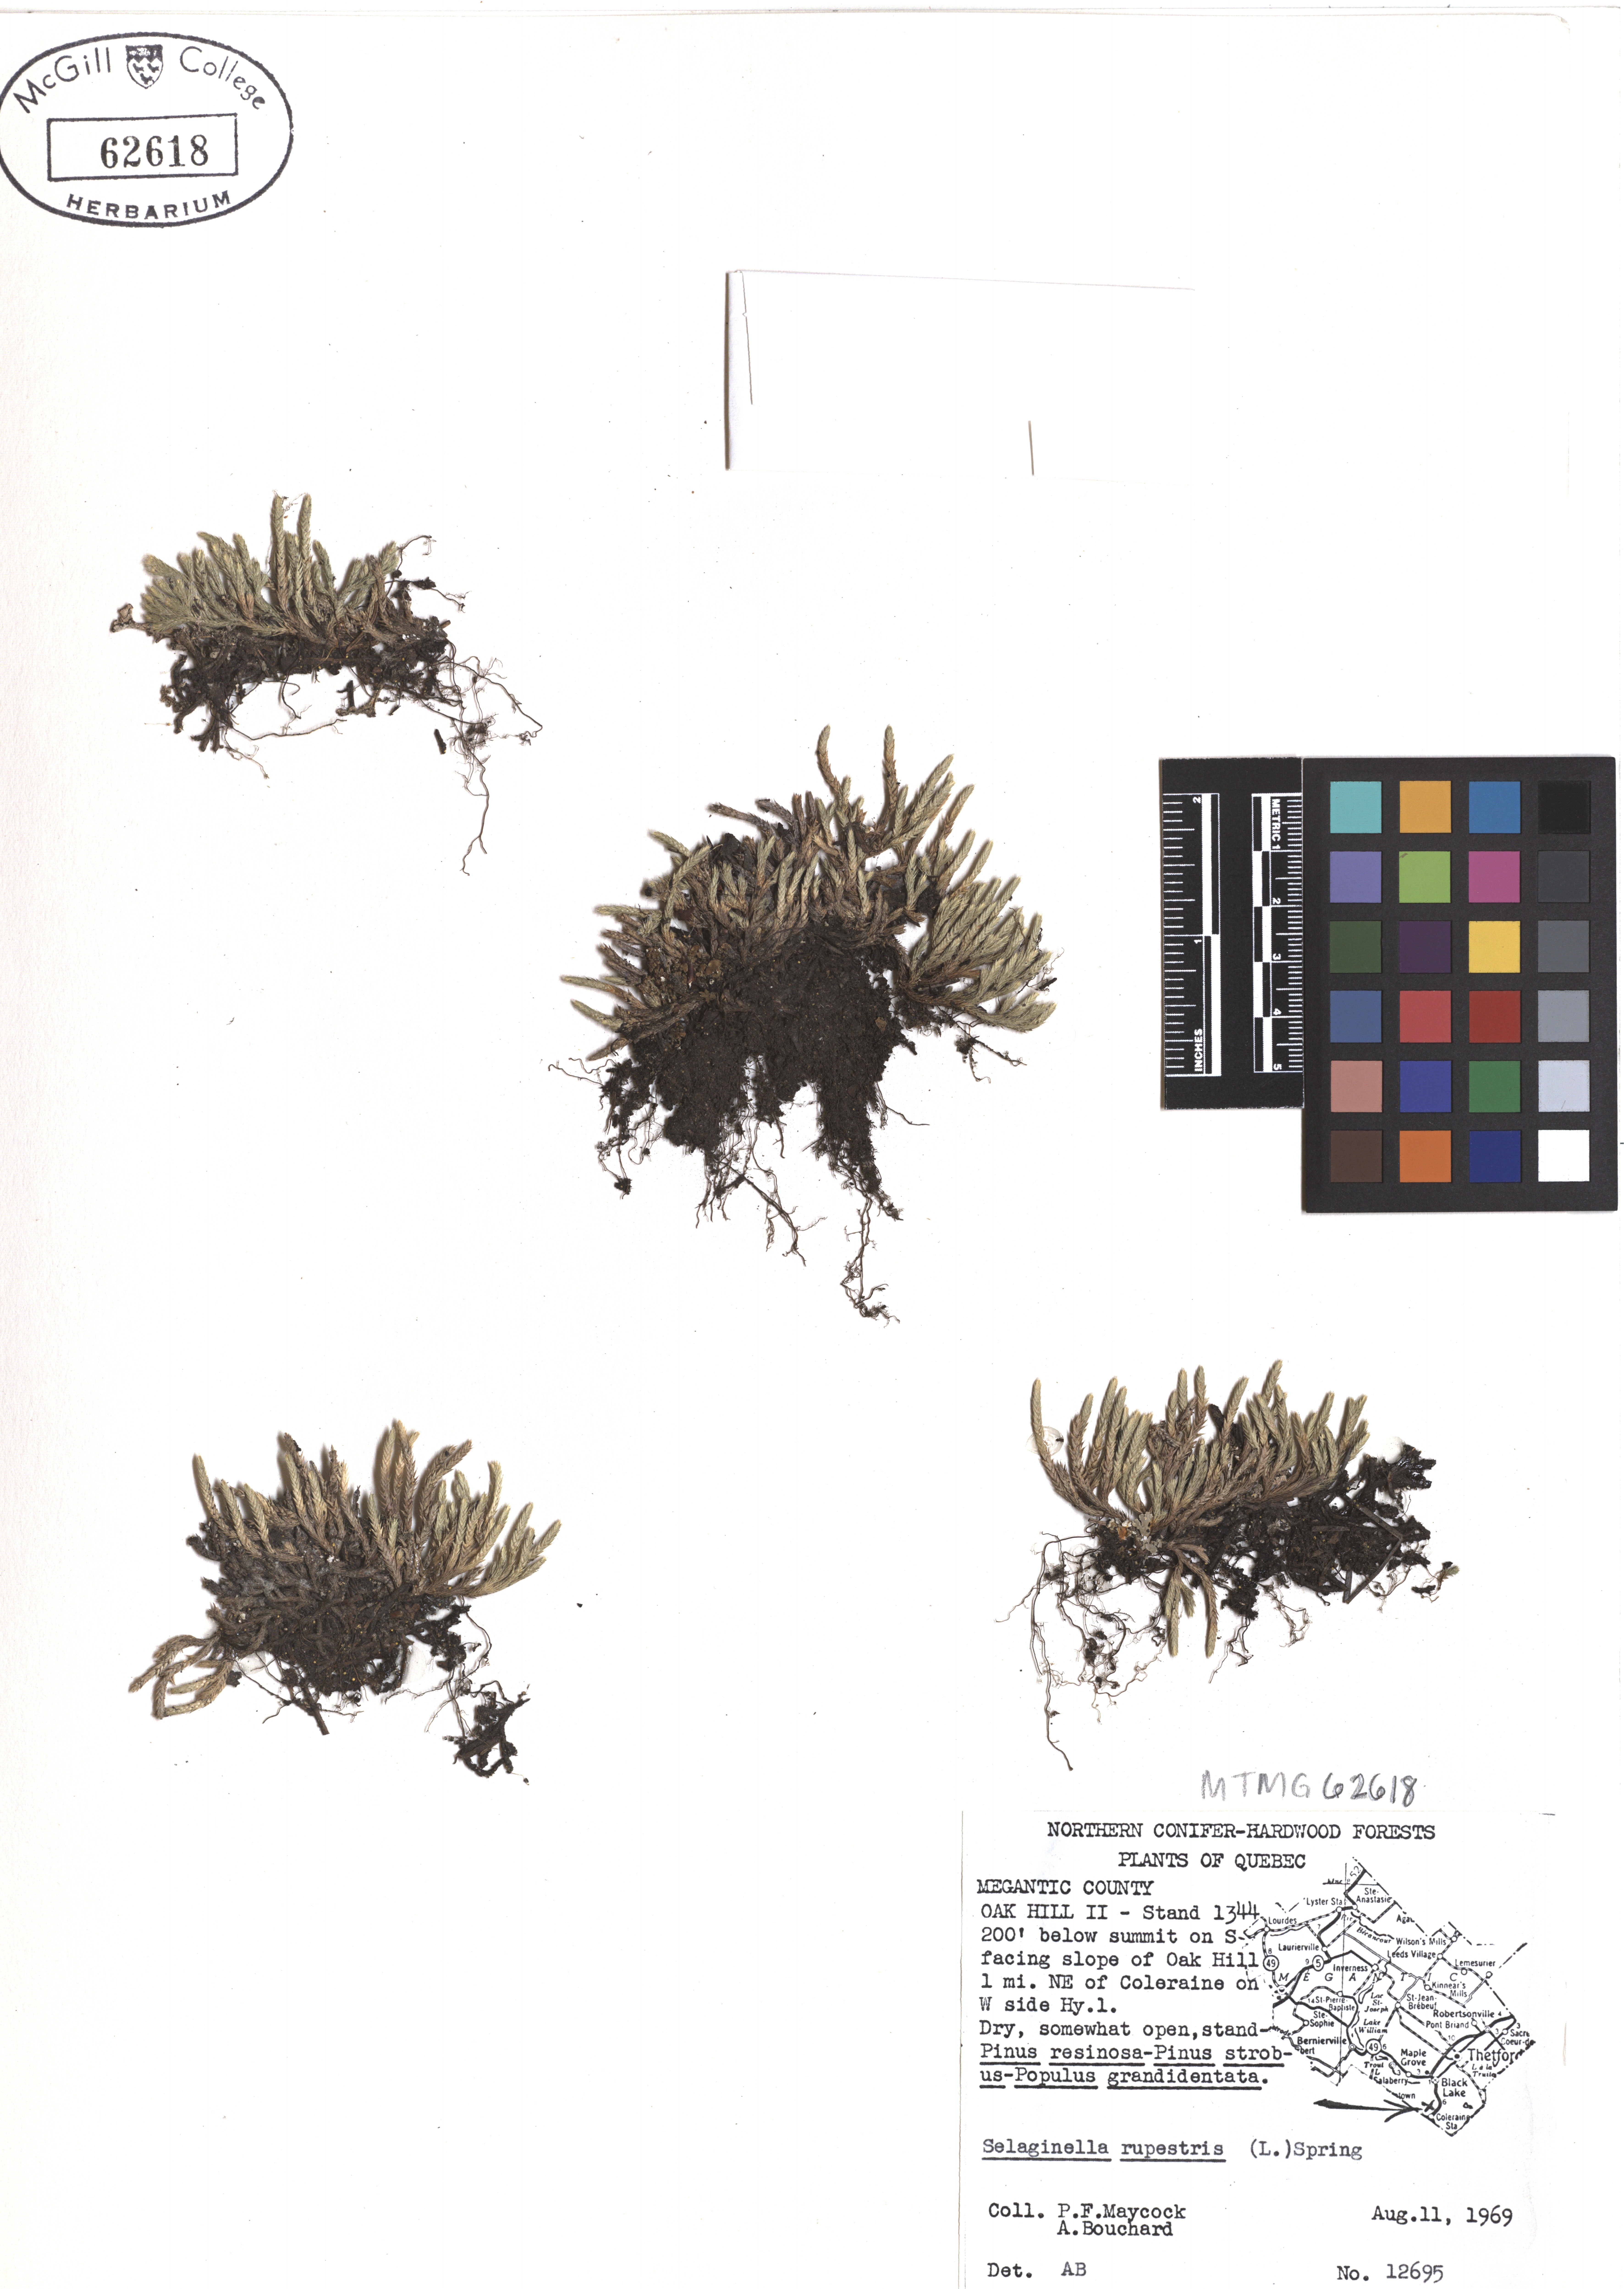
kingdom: Plantae
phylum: Tracheophyta
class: Lycopodiopsida
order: Selaginellales
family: Selaginellaceae
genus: Selaginella
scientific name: Selaginella sellowii
